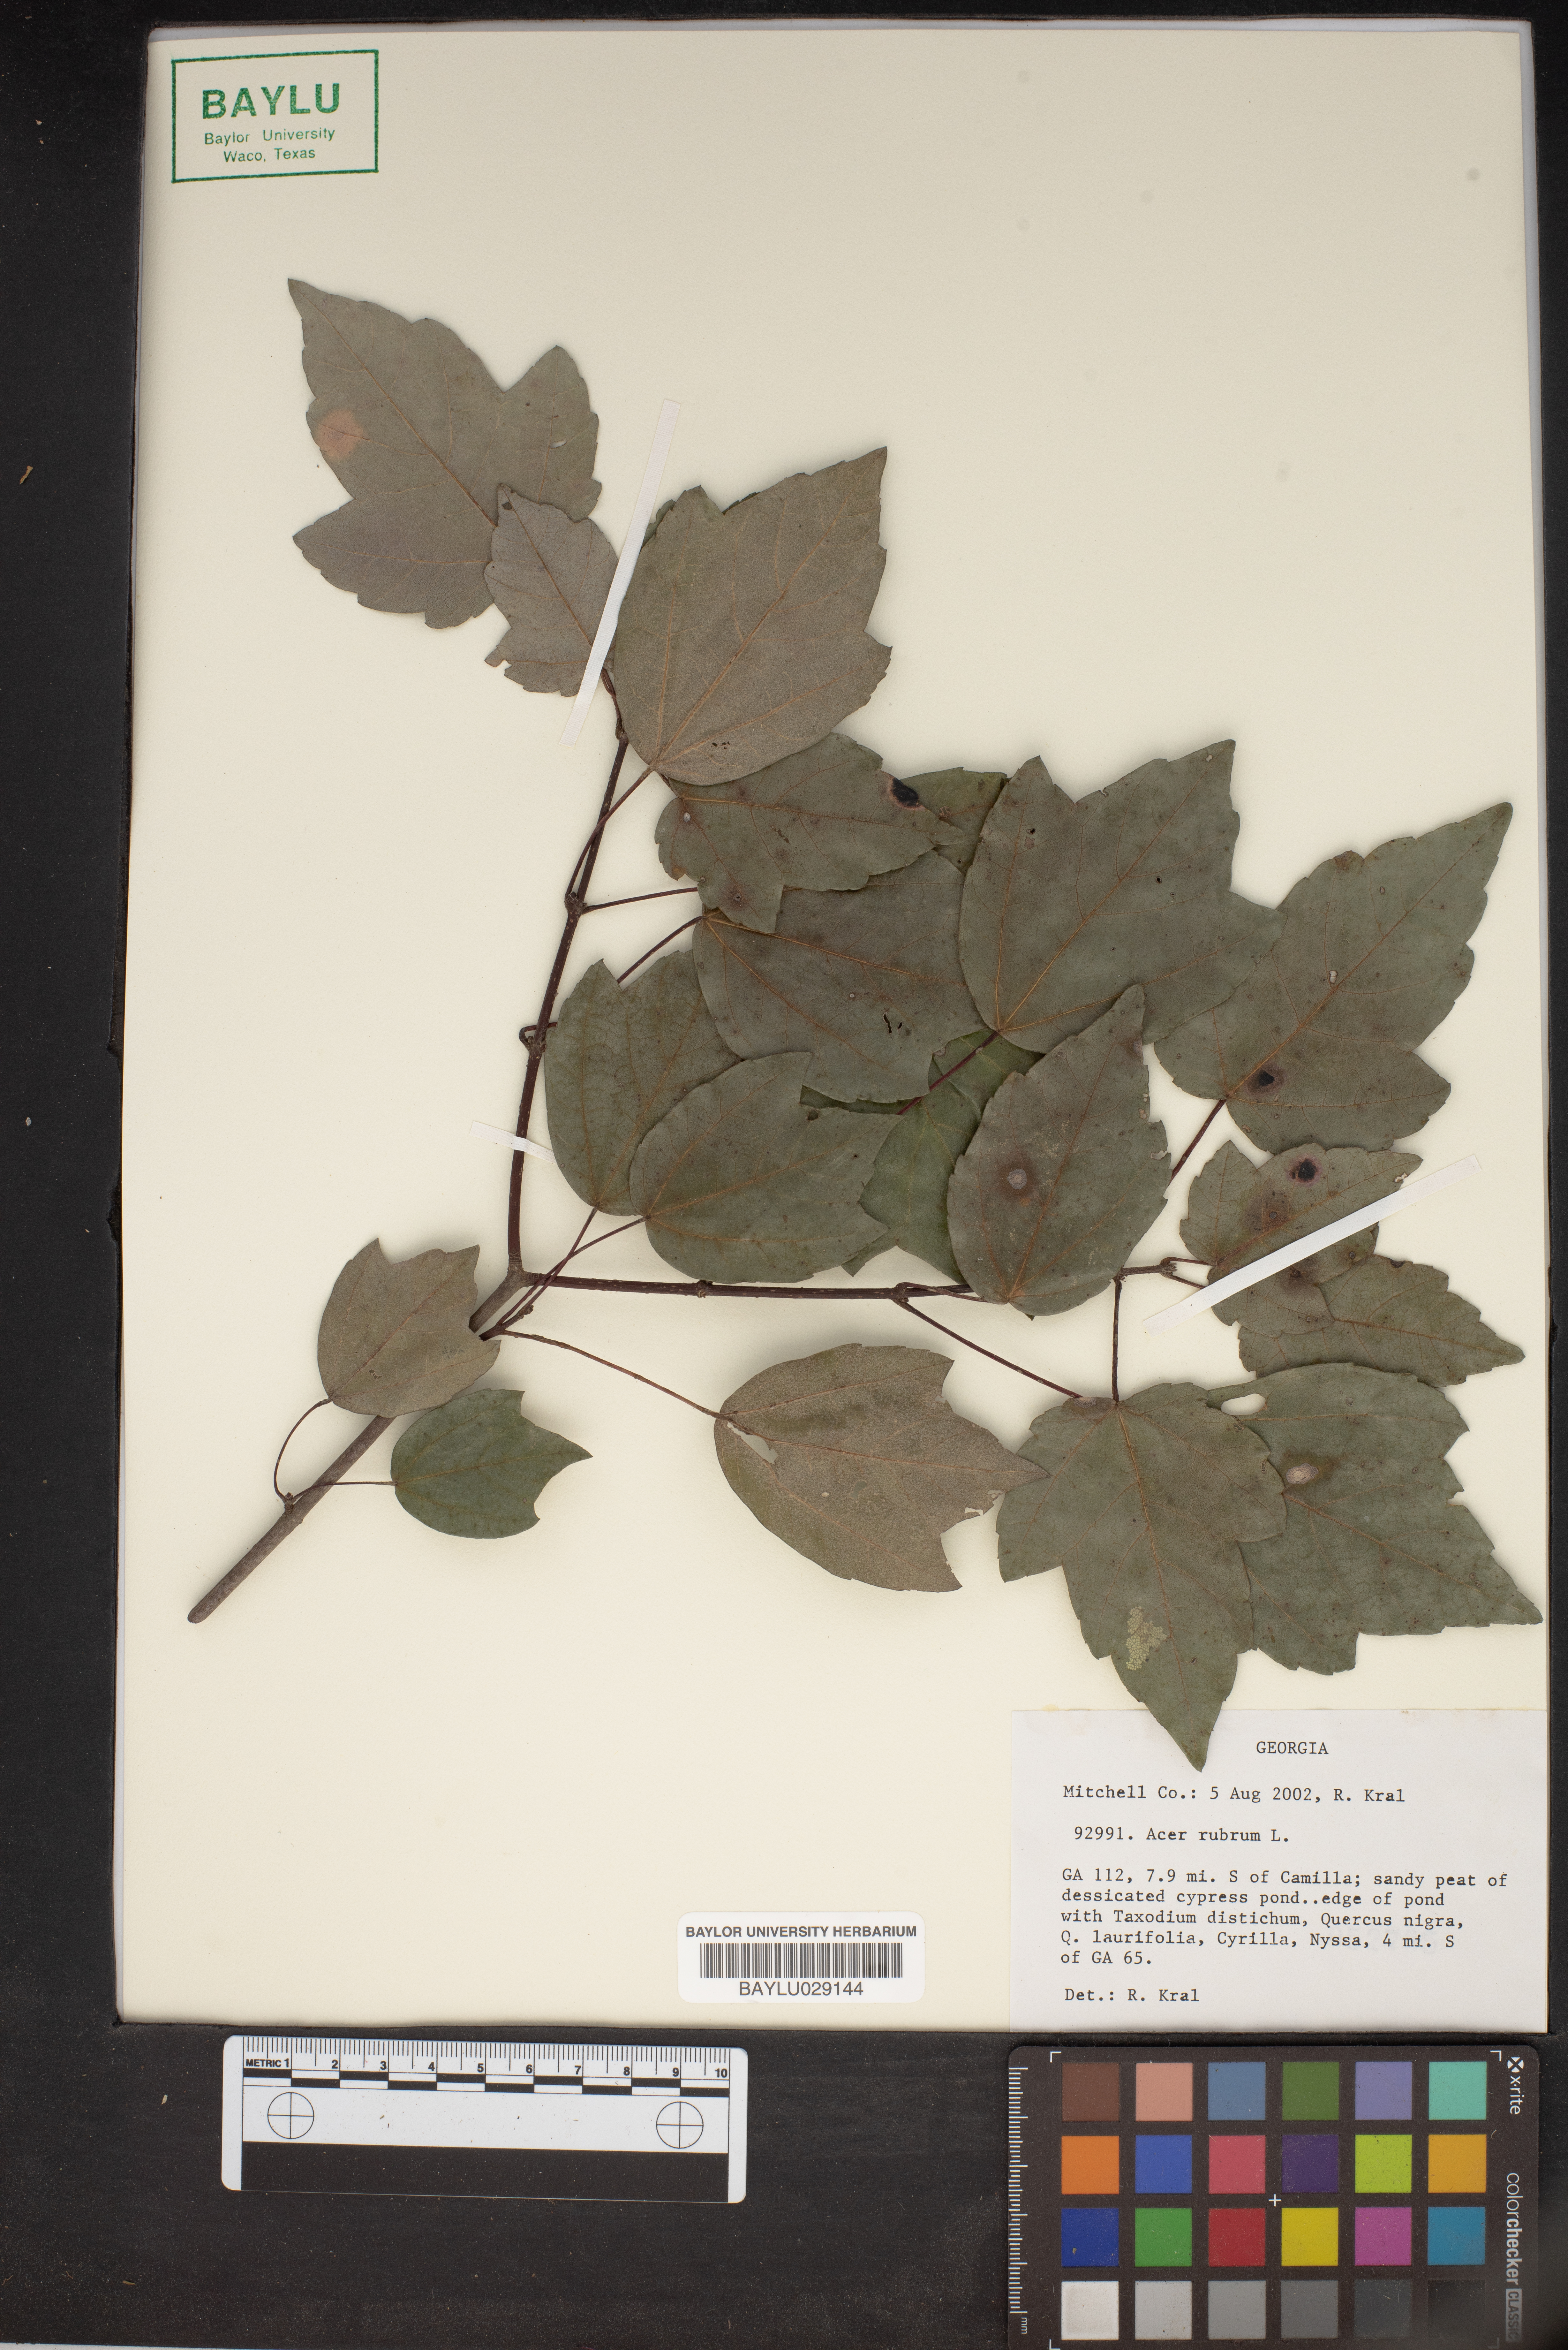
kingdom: Plantae
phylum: Tracheophyta
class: Magnoliopsida
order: Sapindales
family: Sapindaceae
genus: Acer
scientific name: Acer rubrum
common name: Red maple
